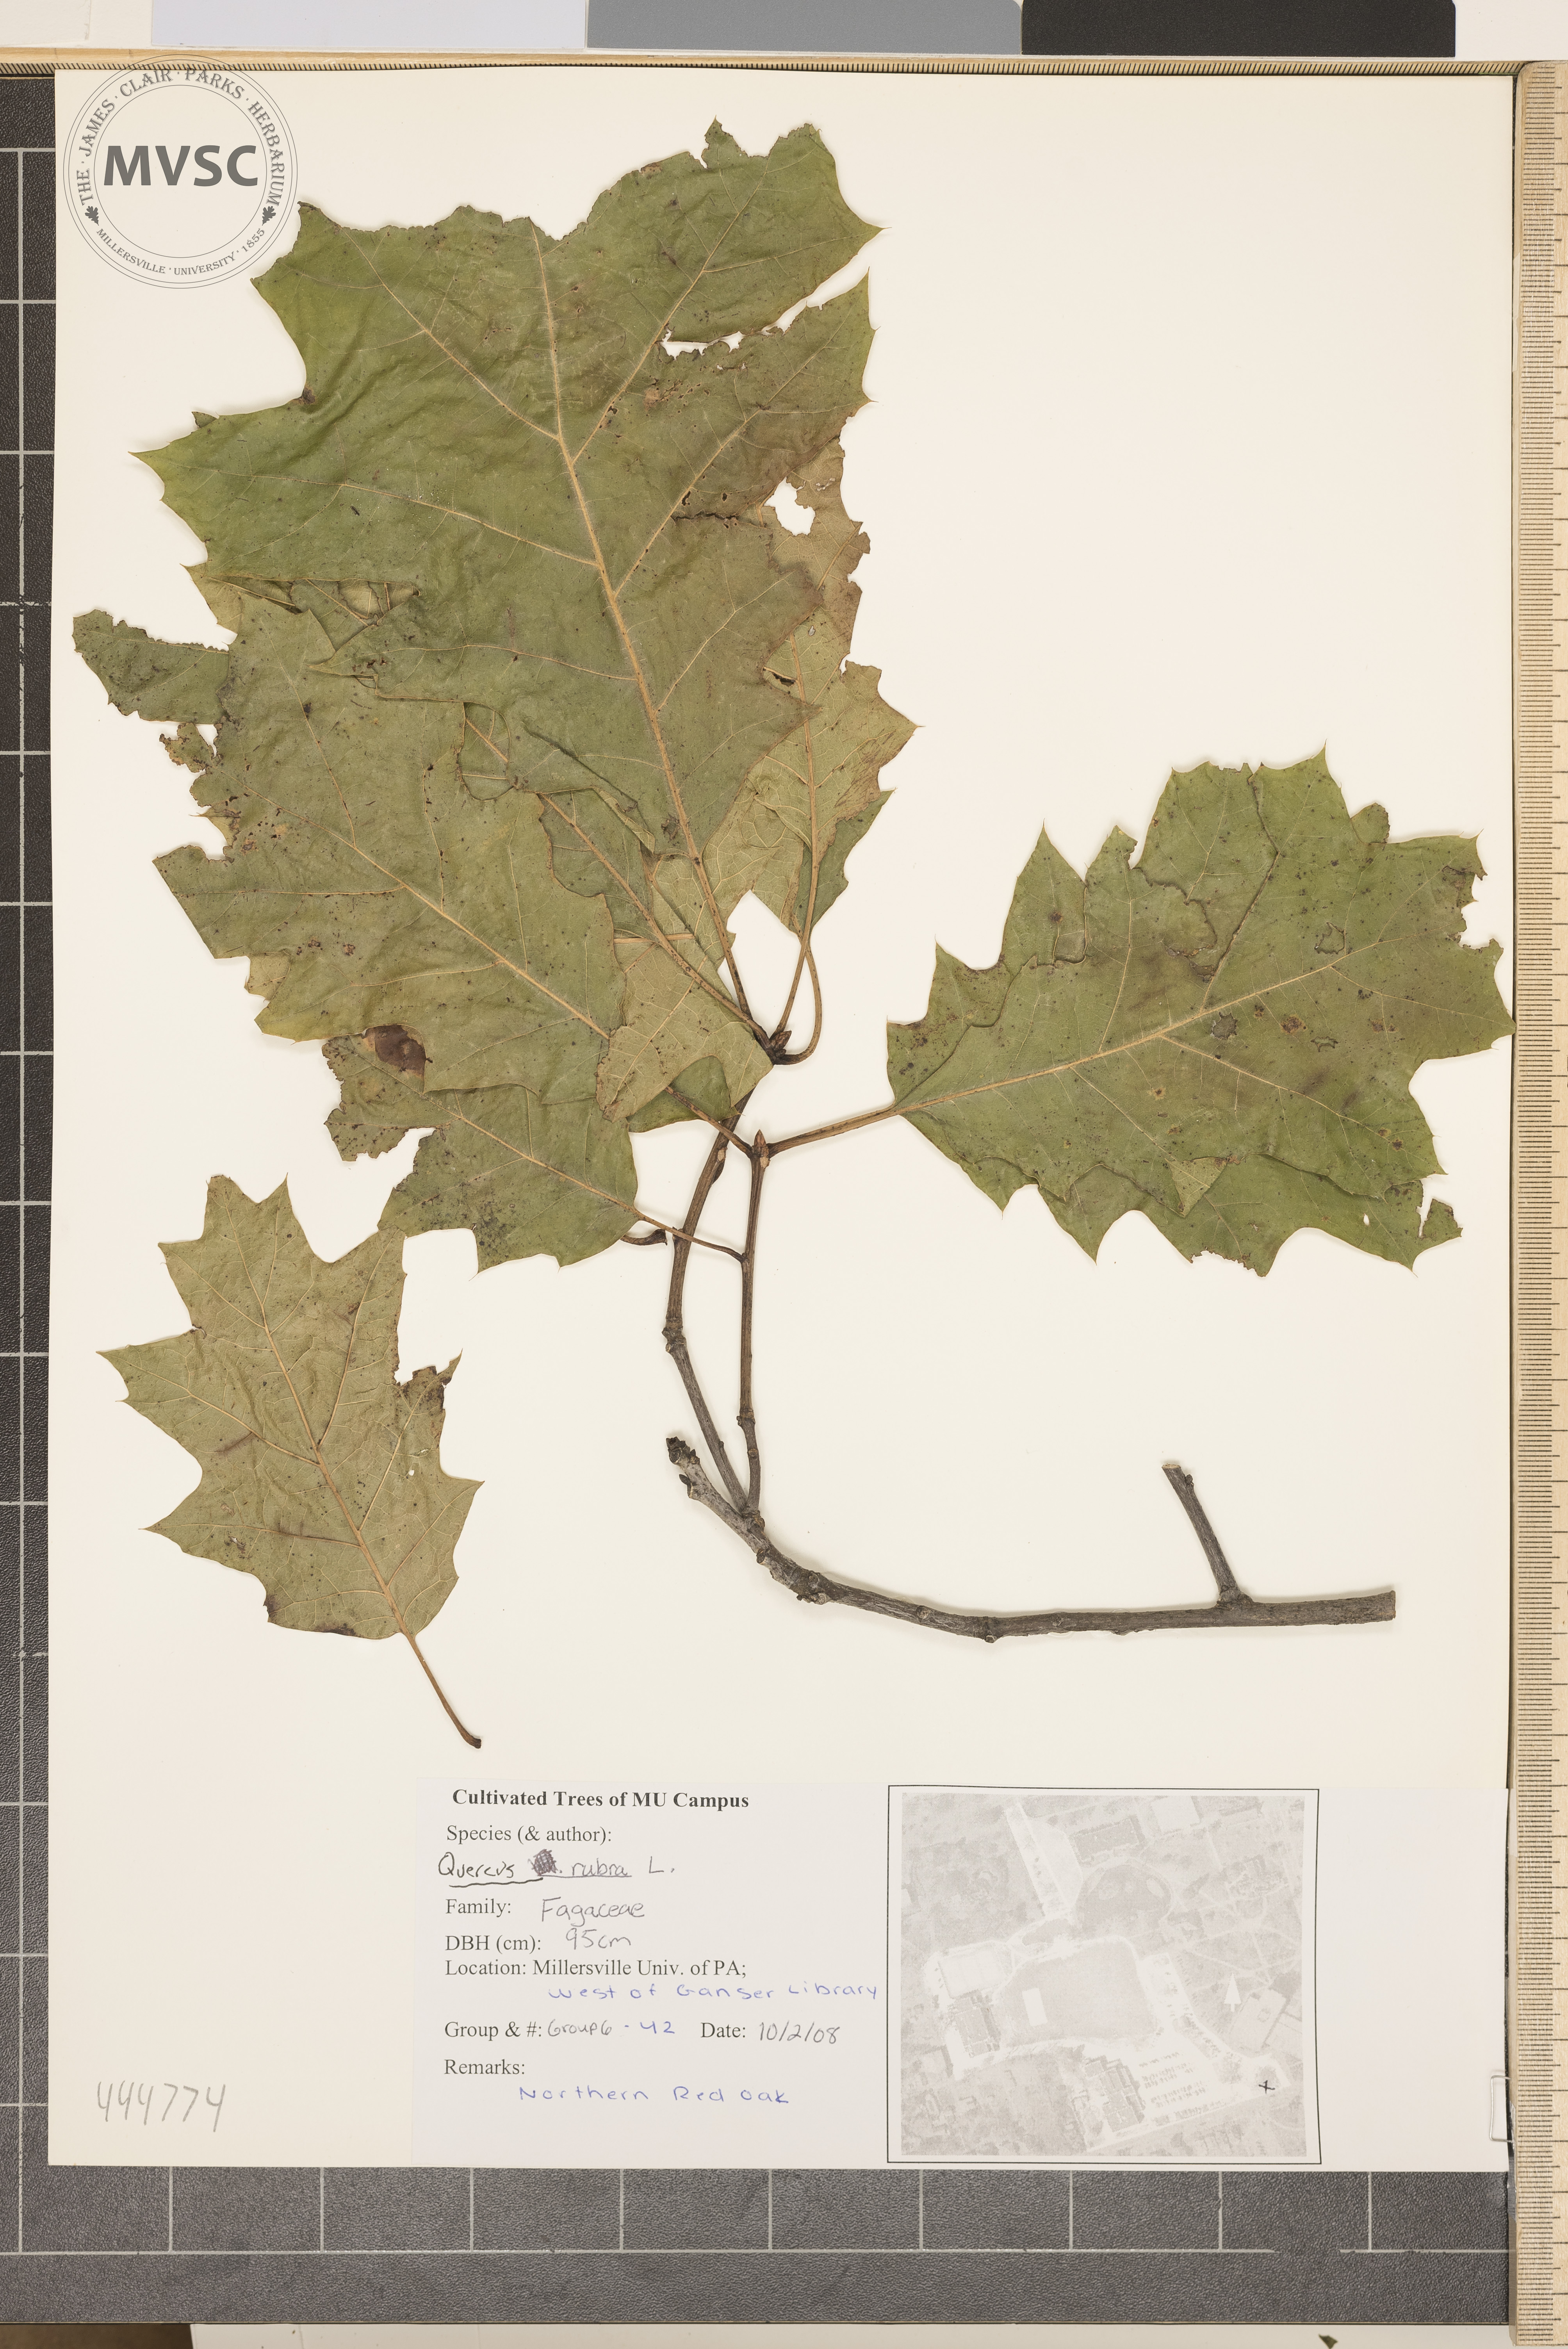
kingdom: Plantae
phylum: Tracheophyta
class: Magnoliopsida
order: Fagales
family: Fagaceae
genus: Quercus
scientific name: Quercus rubra
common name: Red oak
